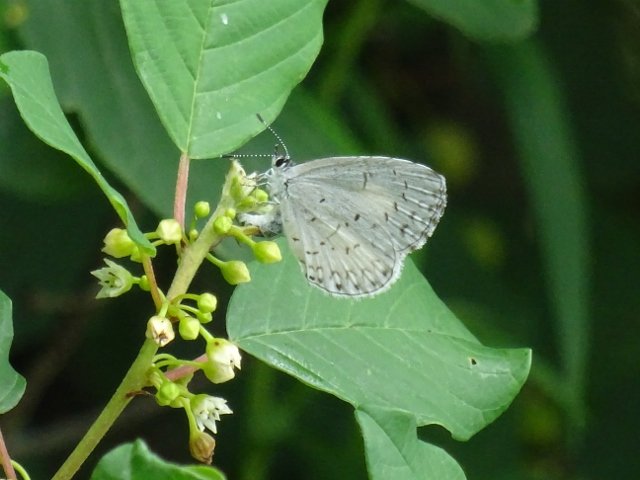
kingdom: Animalia
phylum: Arthropoda
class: Insecta
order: Lepidoptera
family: Lycaenidae
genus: Celastrina
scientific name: Celastrina
